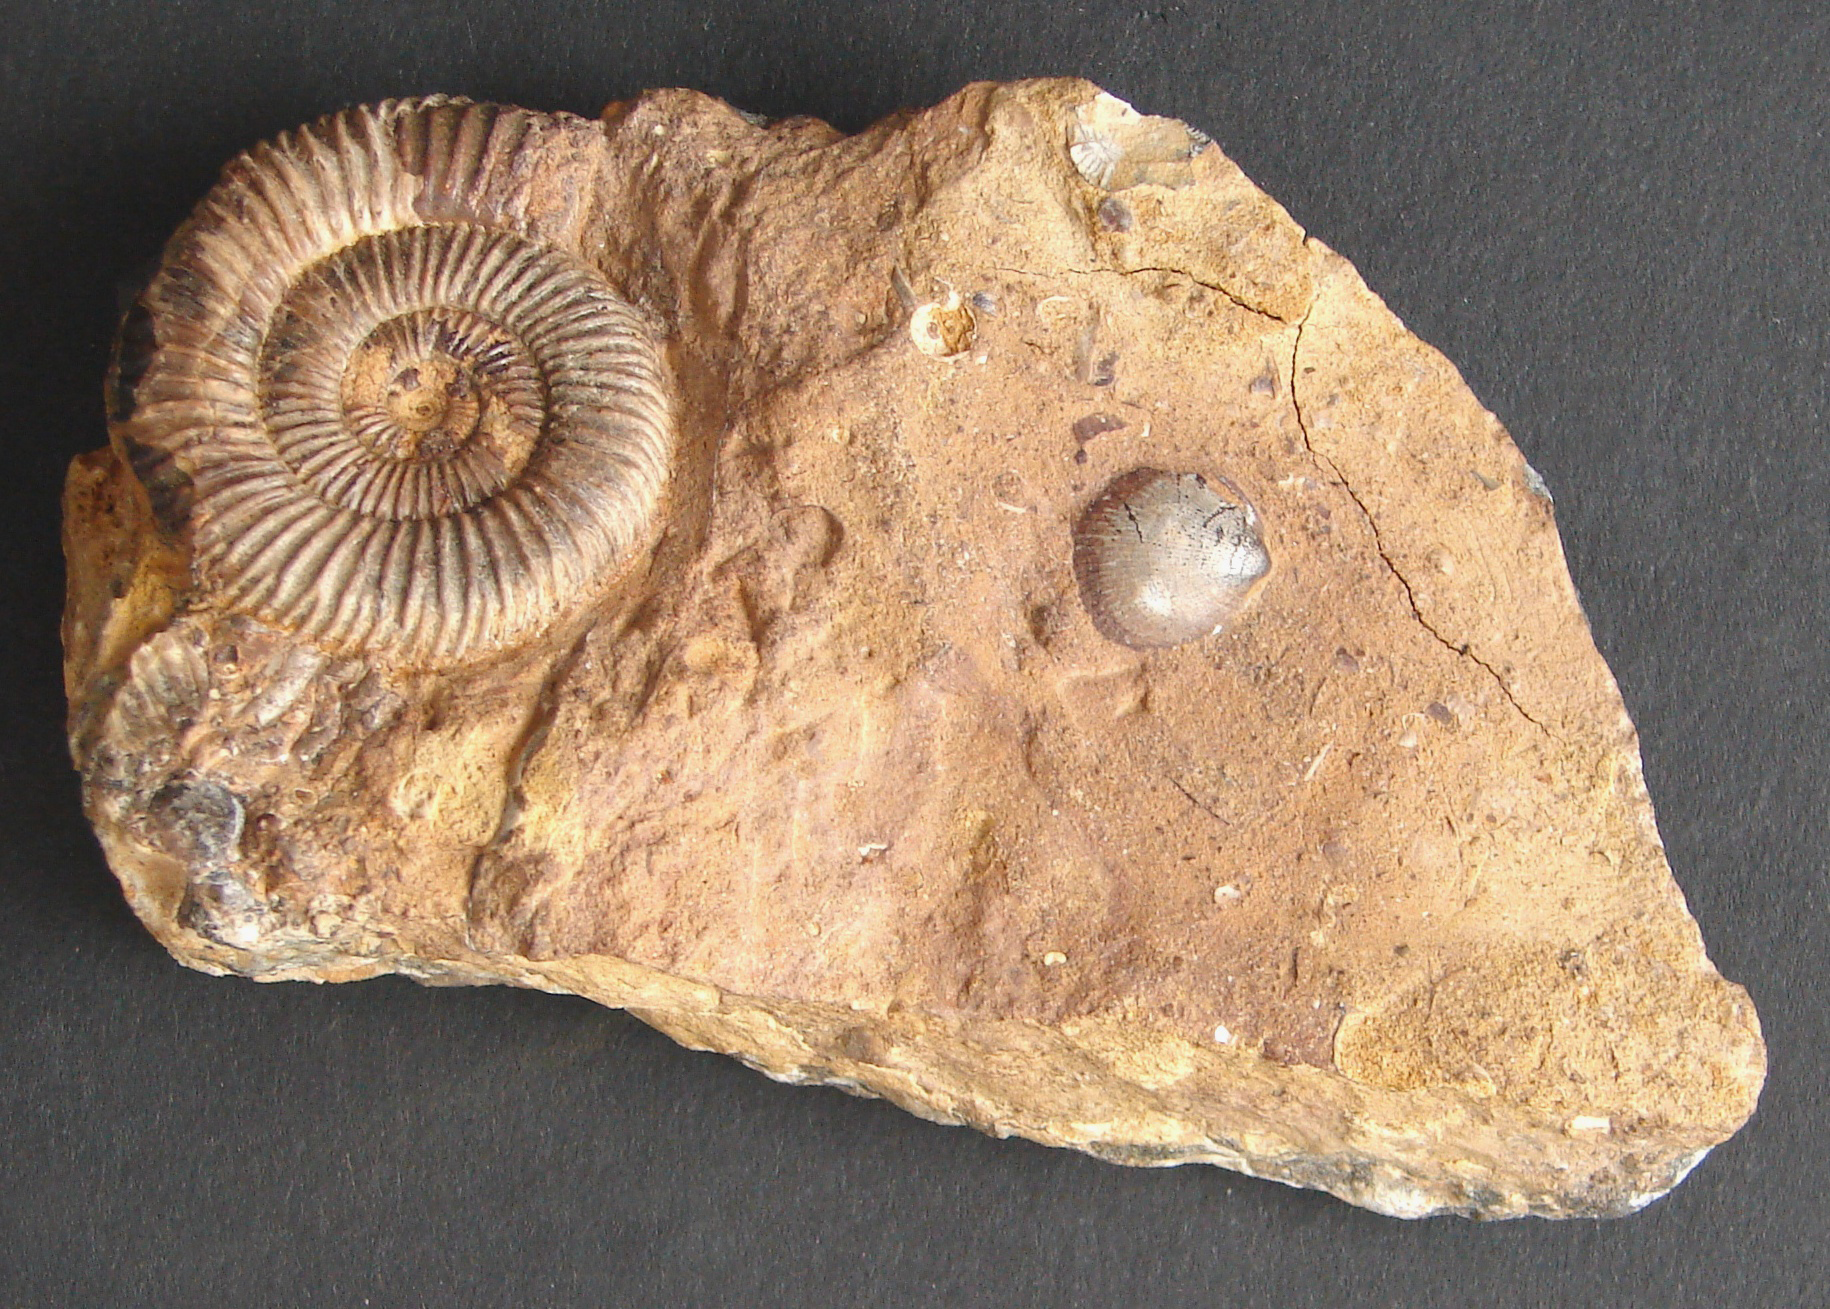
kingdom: Animalia
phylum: Mollusca
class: Cephalopoda
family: Dactylioceratidae
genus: Dactylioceras
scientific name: Dactylioceras athleticum
